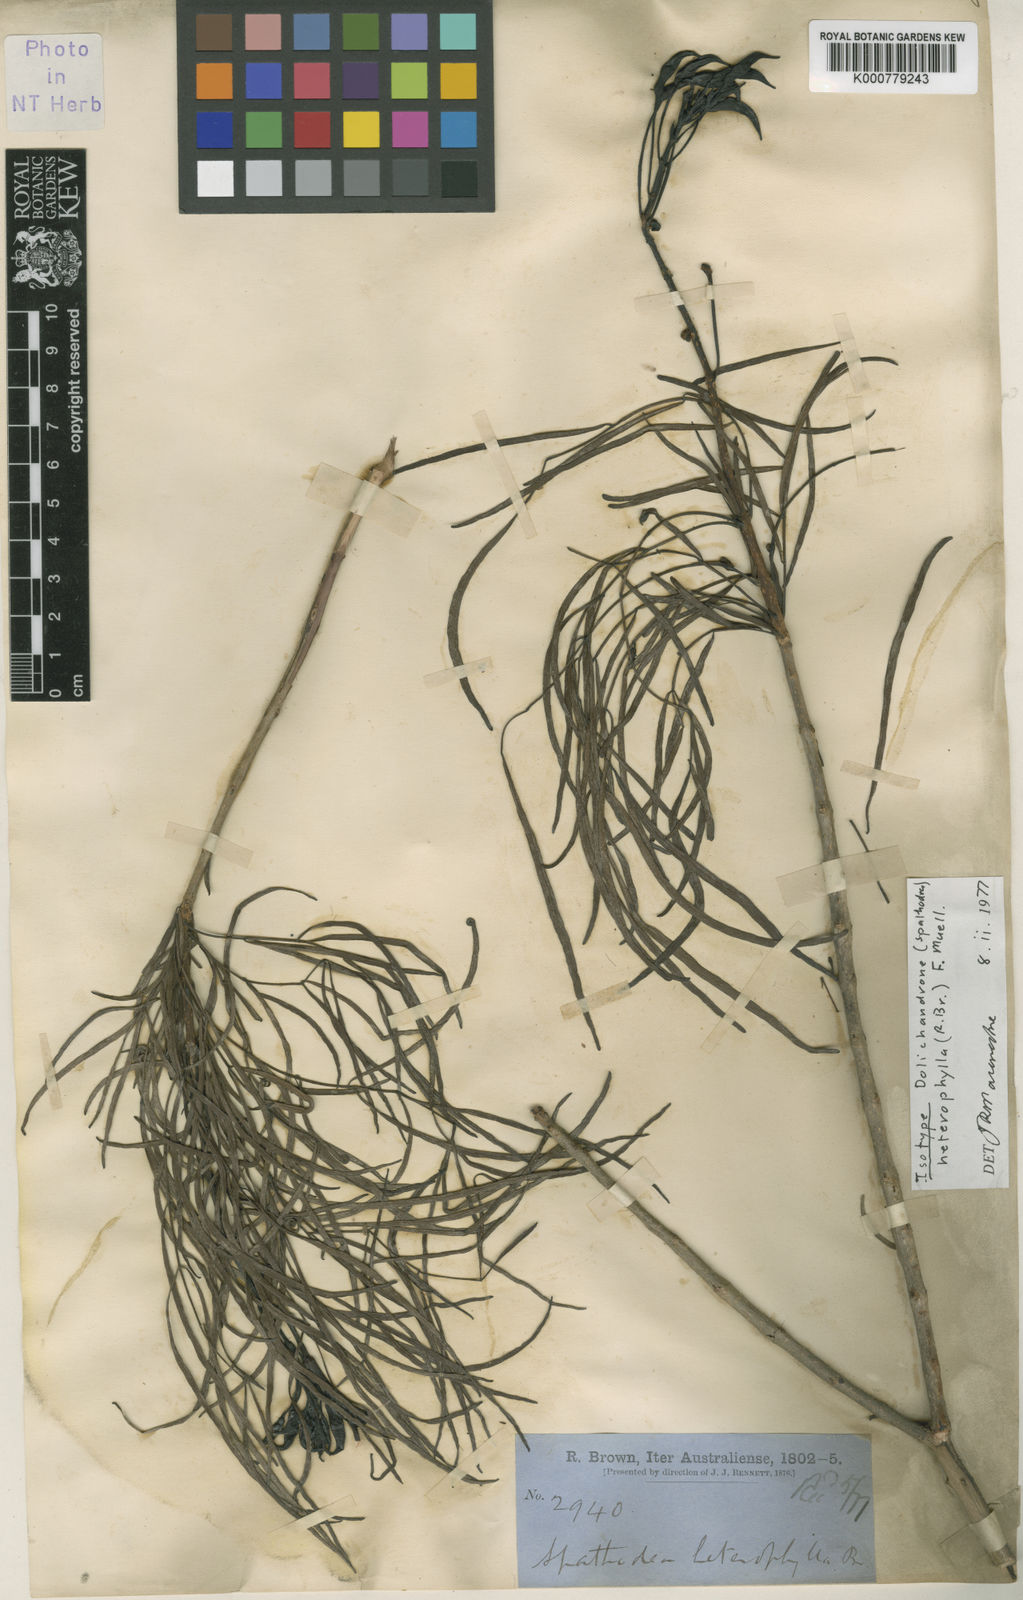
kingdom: Plantae
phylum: Tracheophyta
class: Magnoliopsida
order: Lamiales
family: Bignoniaceae
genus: Dolichandrone
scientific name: Dolichandrone heterophylla
